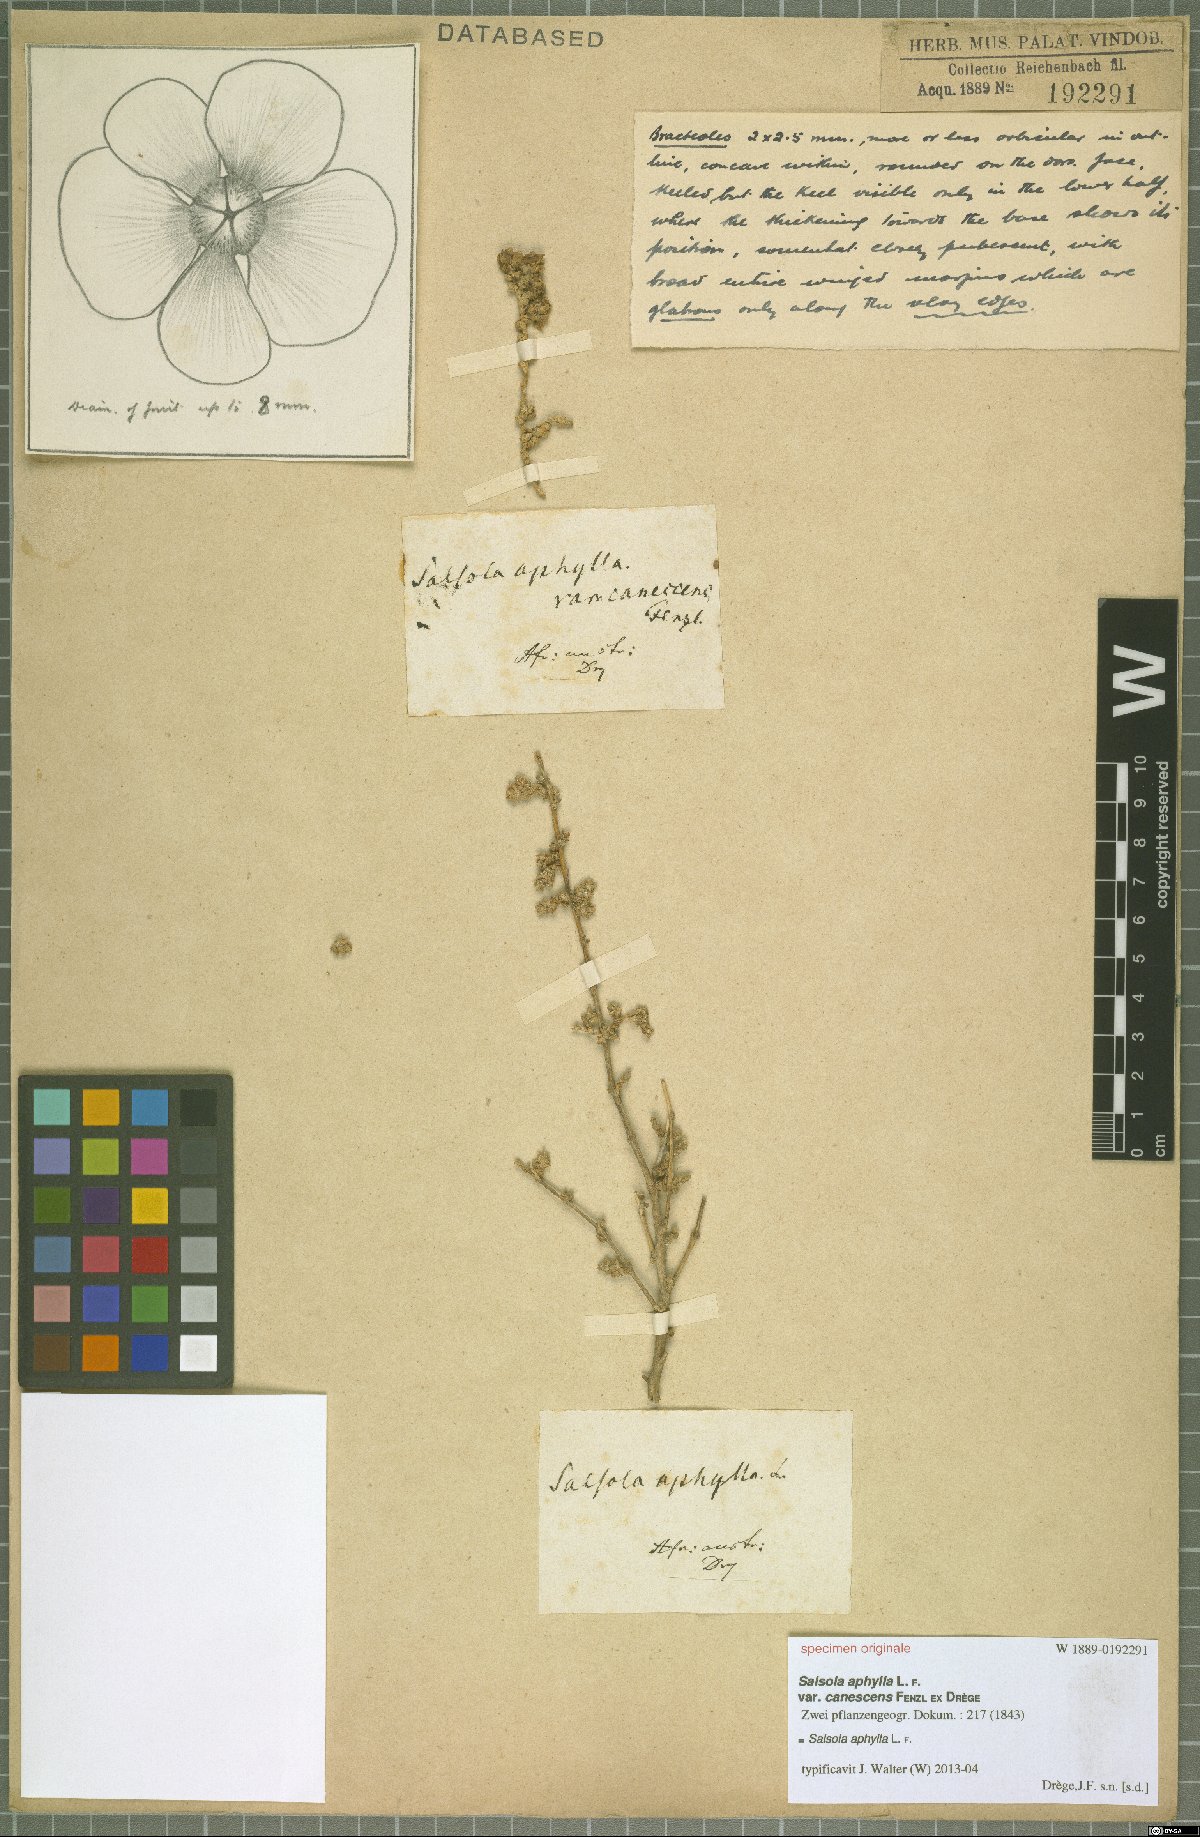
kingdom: Plantae
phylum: Tracheophyta
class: Magnoliopsida
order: Caryophyllales
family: Amaranthaceae
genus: Caroxylon
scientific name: Caroxylon aphyllum
